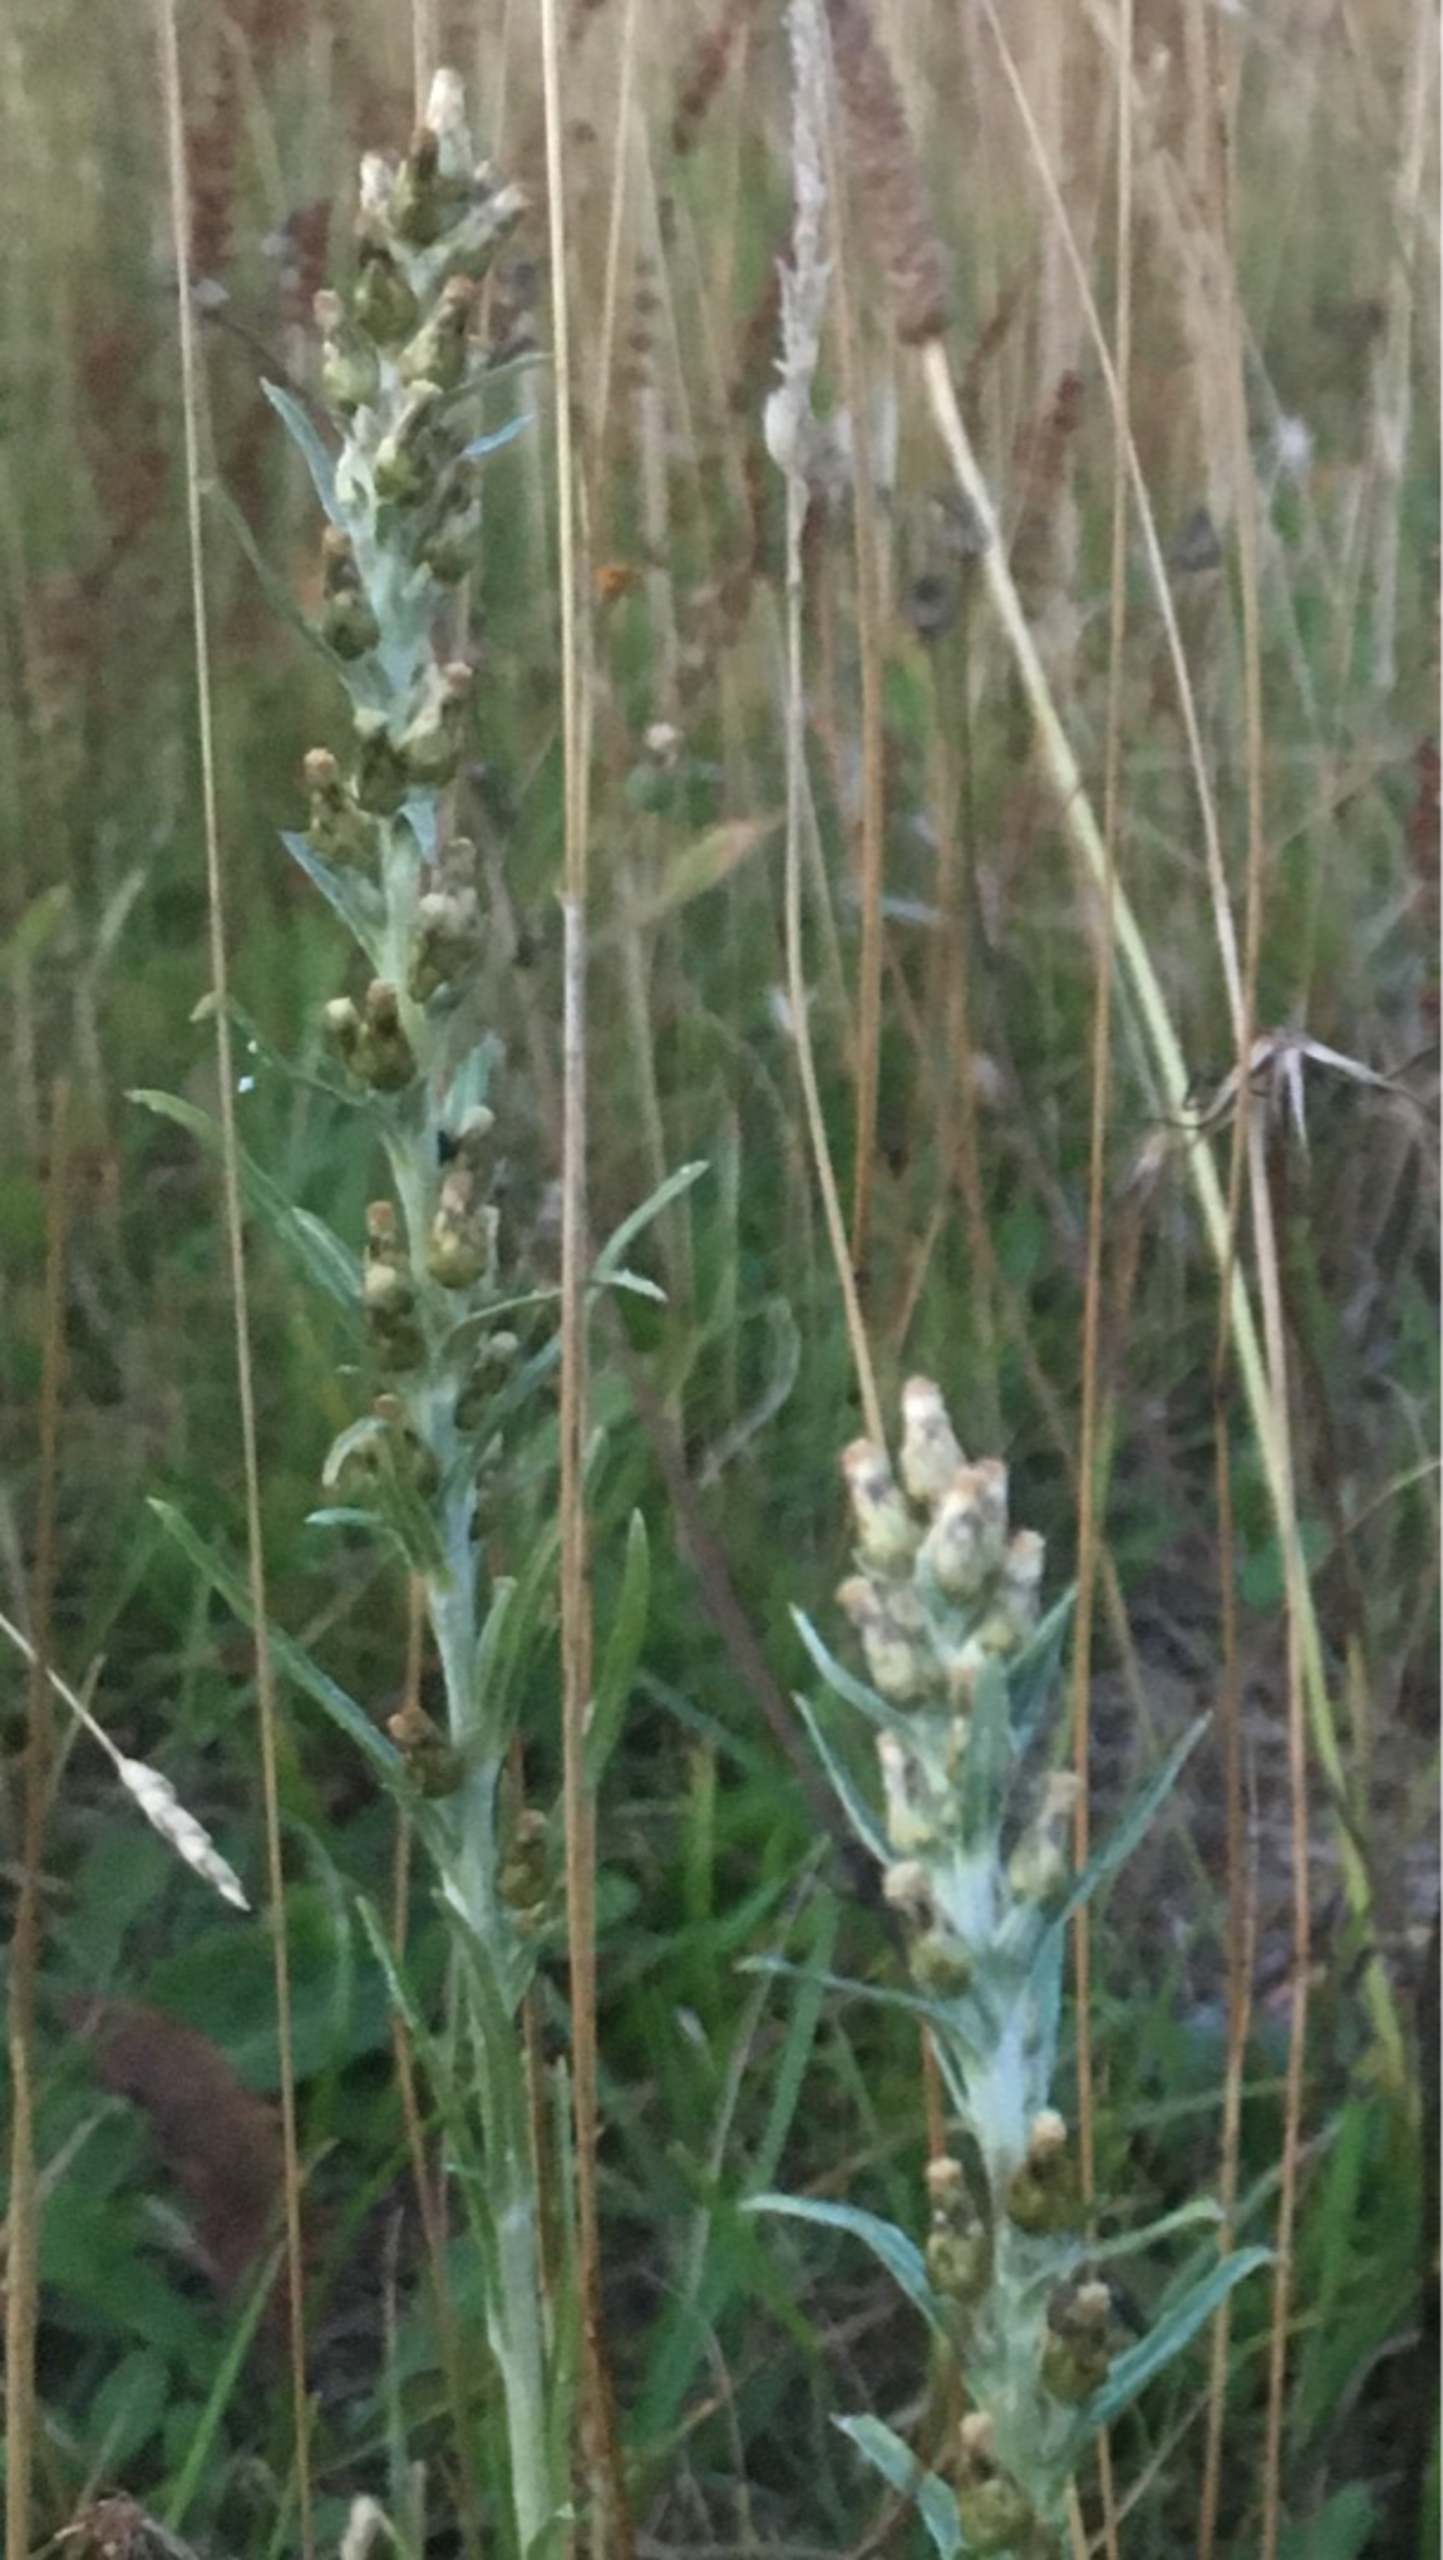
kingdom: Plantae
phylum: Tracheophyta
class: Magnoliopsida
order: Asterales
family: Asteraceae
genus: Omalotheca
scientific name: Omalotheca sylvatica
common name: Rank evighedsblomst
